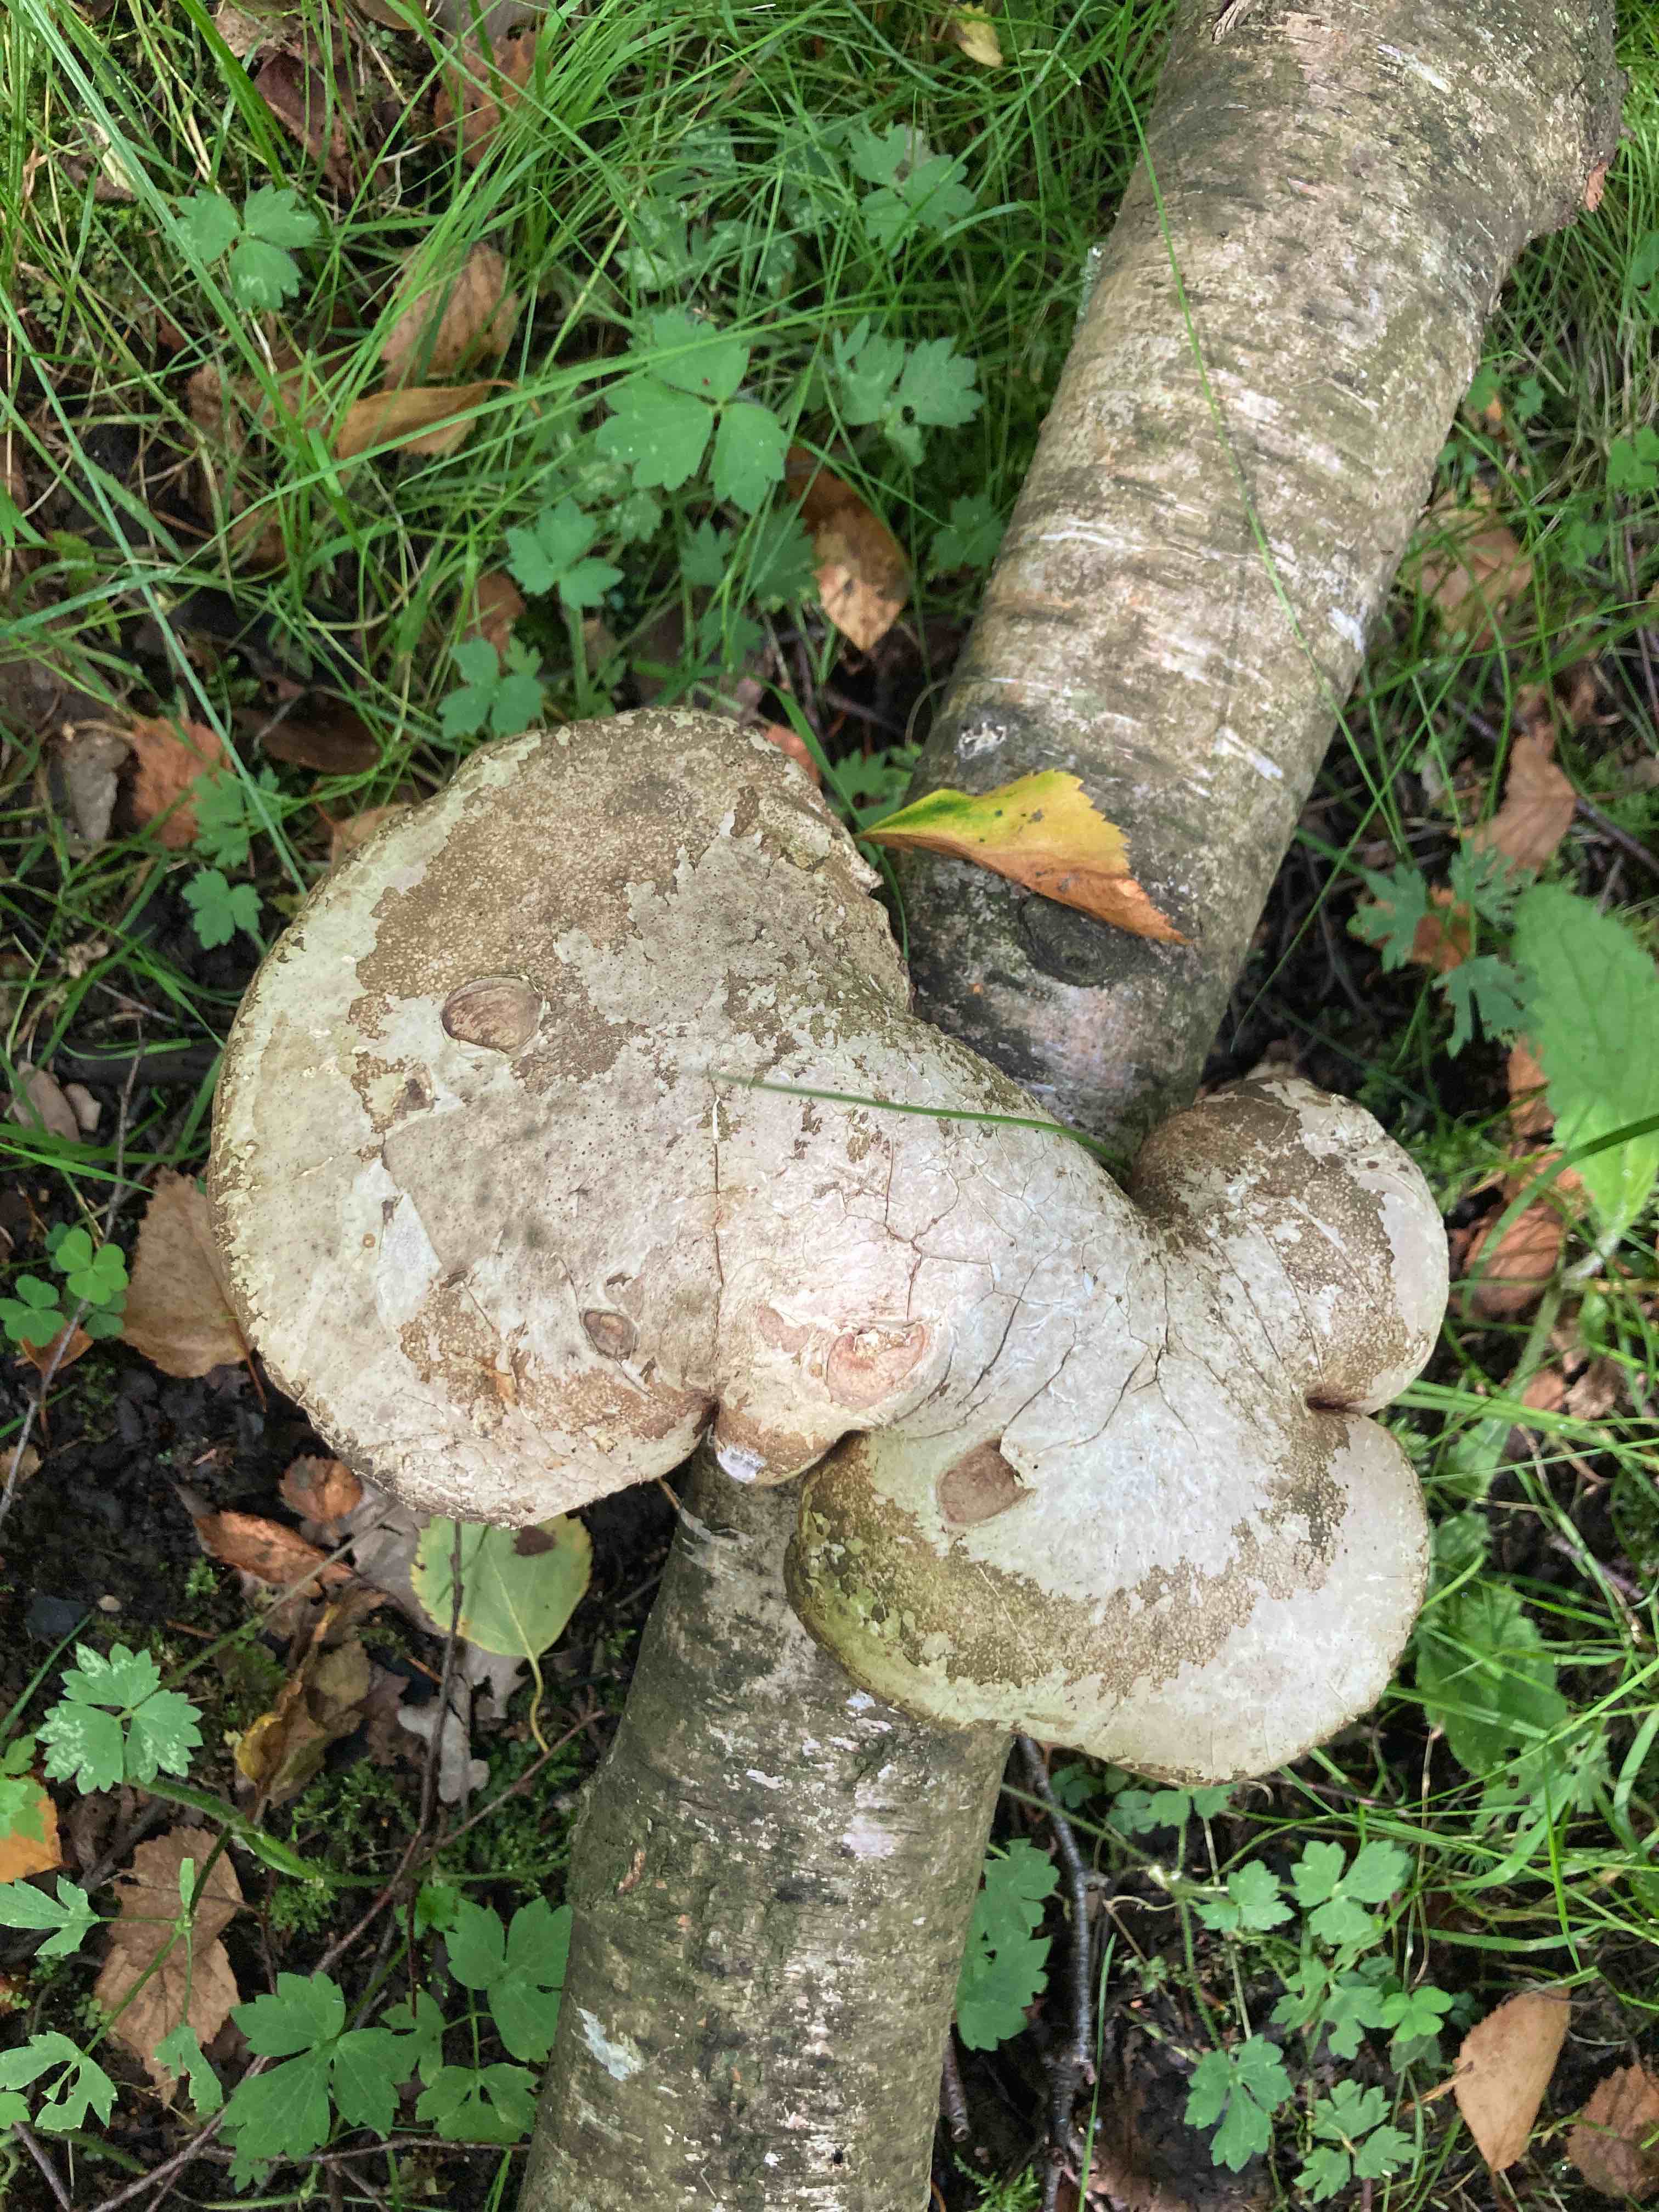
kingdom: Fungi
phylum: Basidiomycota
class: Agaricomycetes
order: Polyporales
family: Fomitopsidaceae
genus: Fomitopsis
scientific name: Fomitopsis betulina
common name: birkeporesvamp
